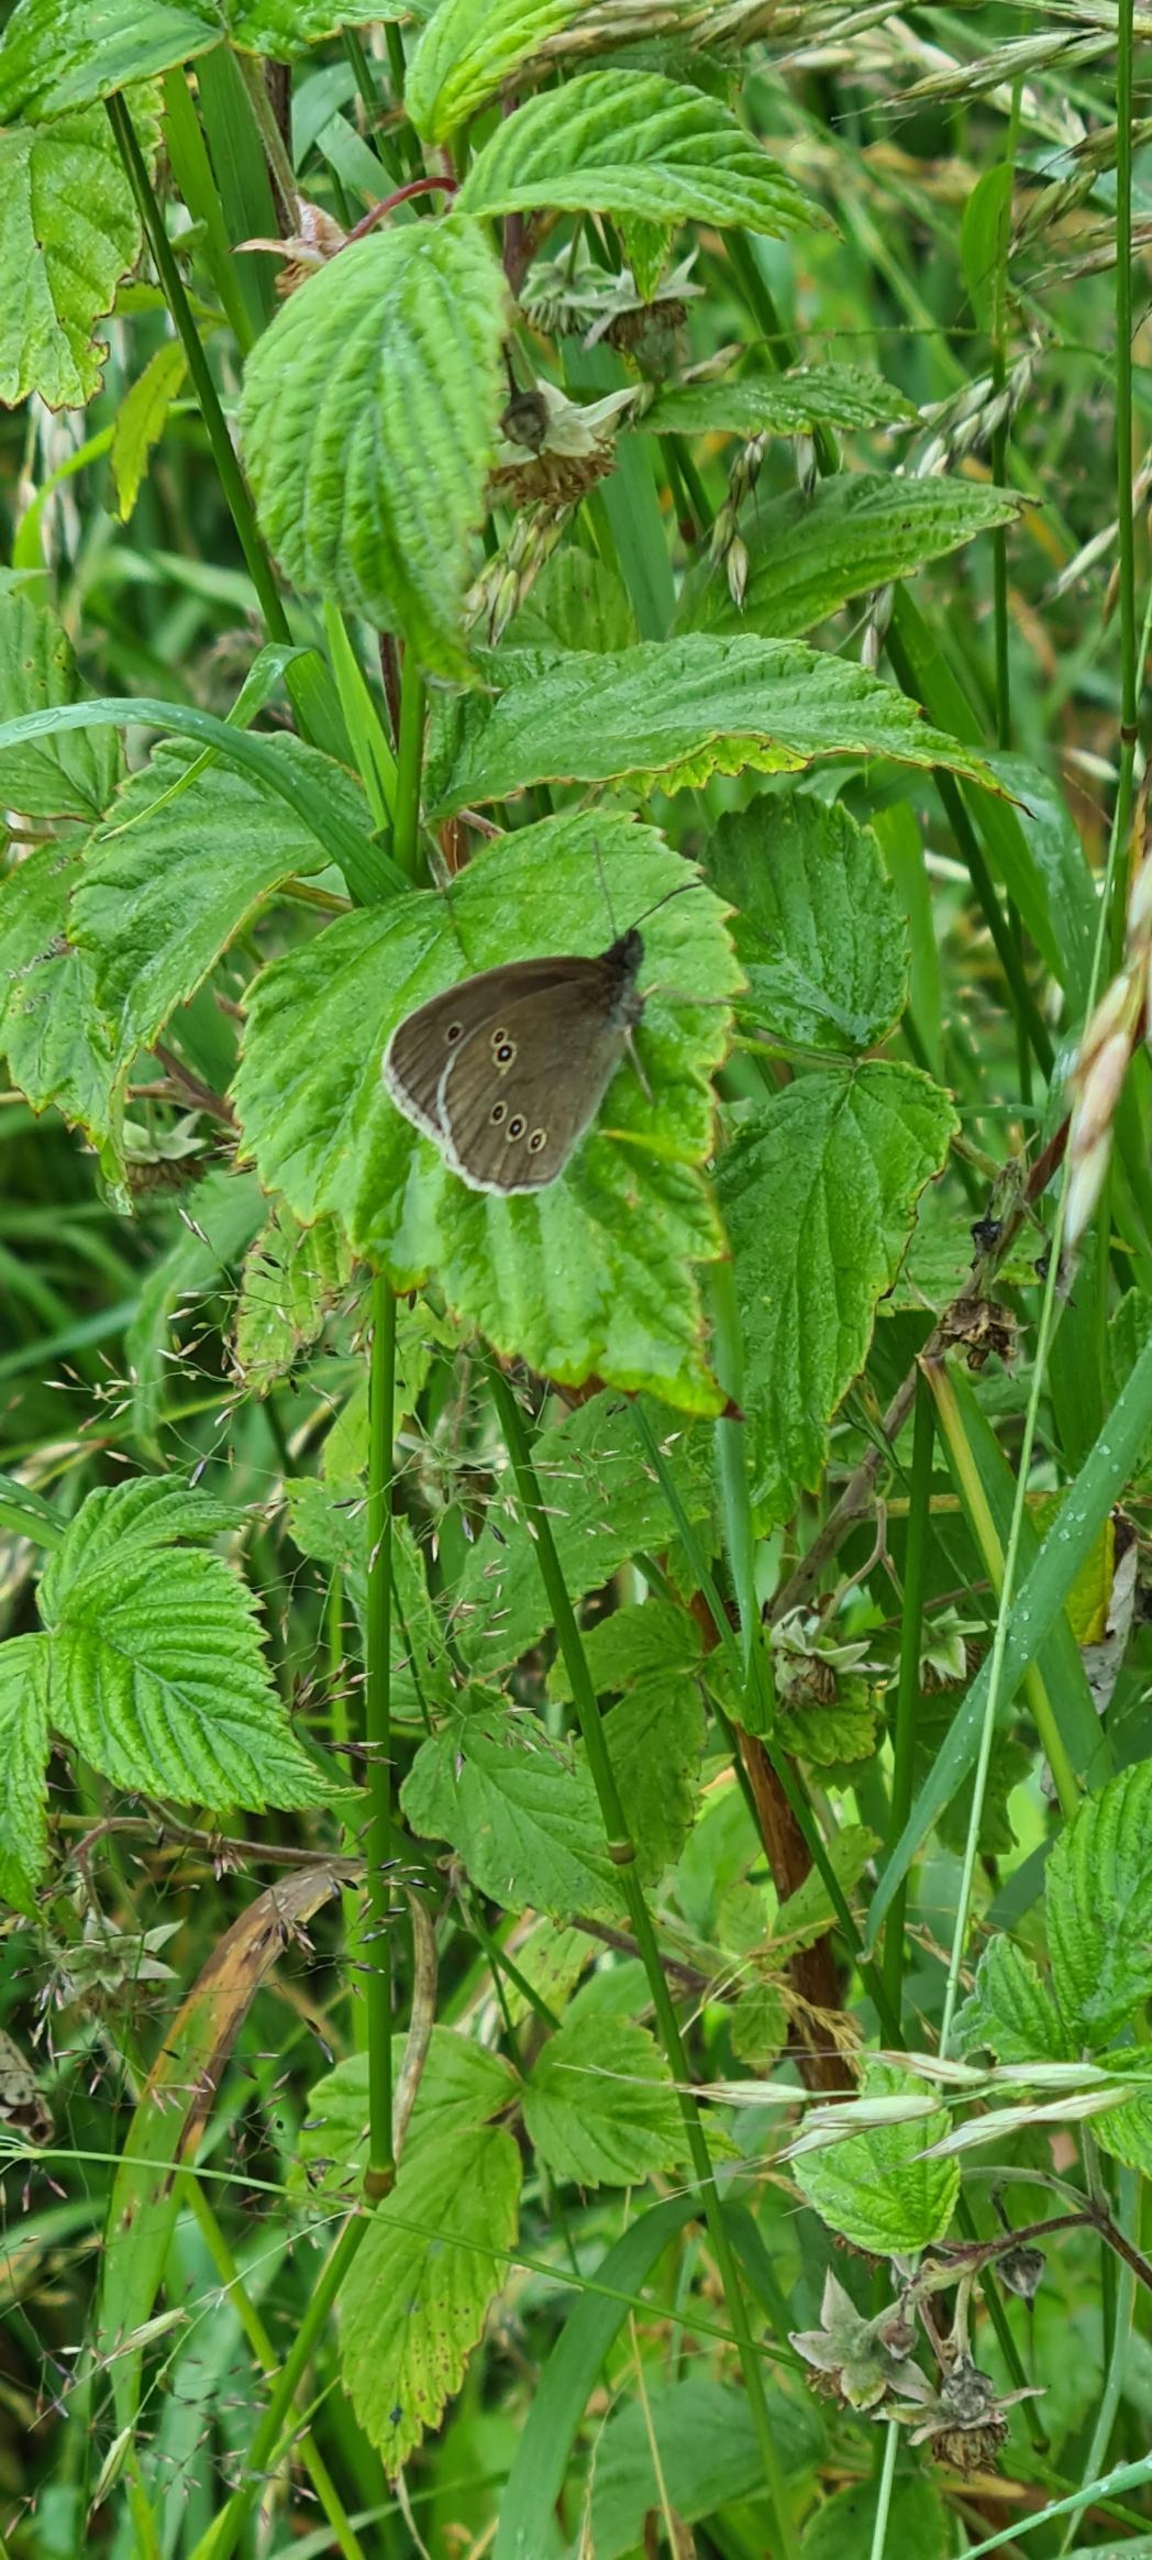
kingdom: Animalia
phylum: Arthropoda
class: Insecta
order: Lepidoptera
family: Nymphalidae
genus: Aphantopus
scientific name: Aphantopus hyperantus
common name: Engrandøje
